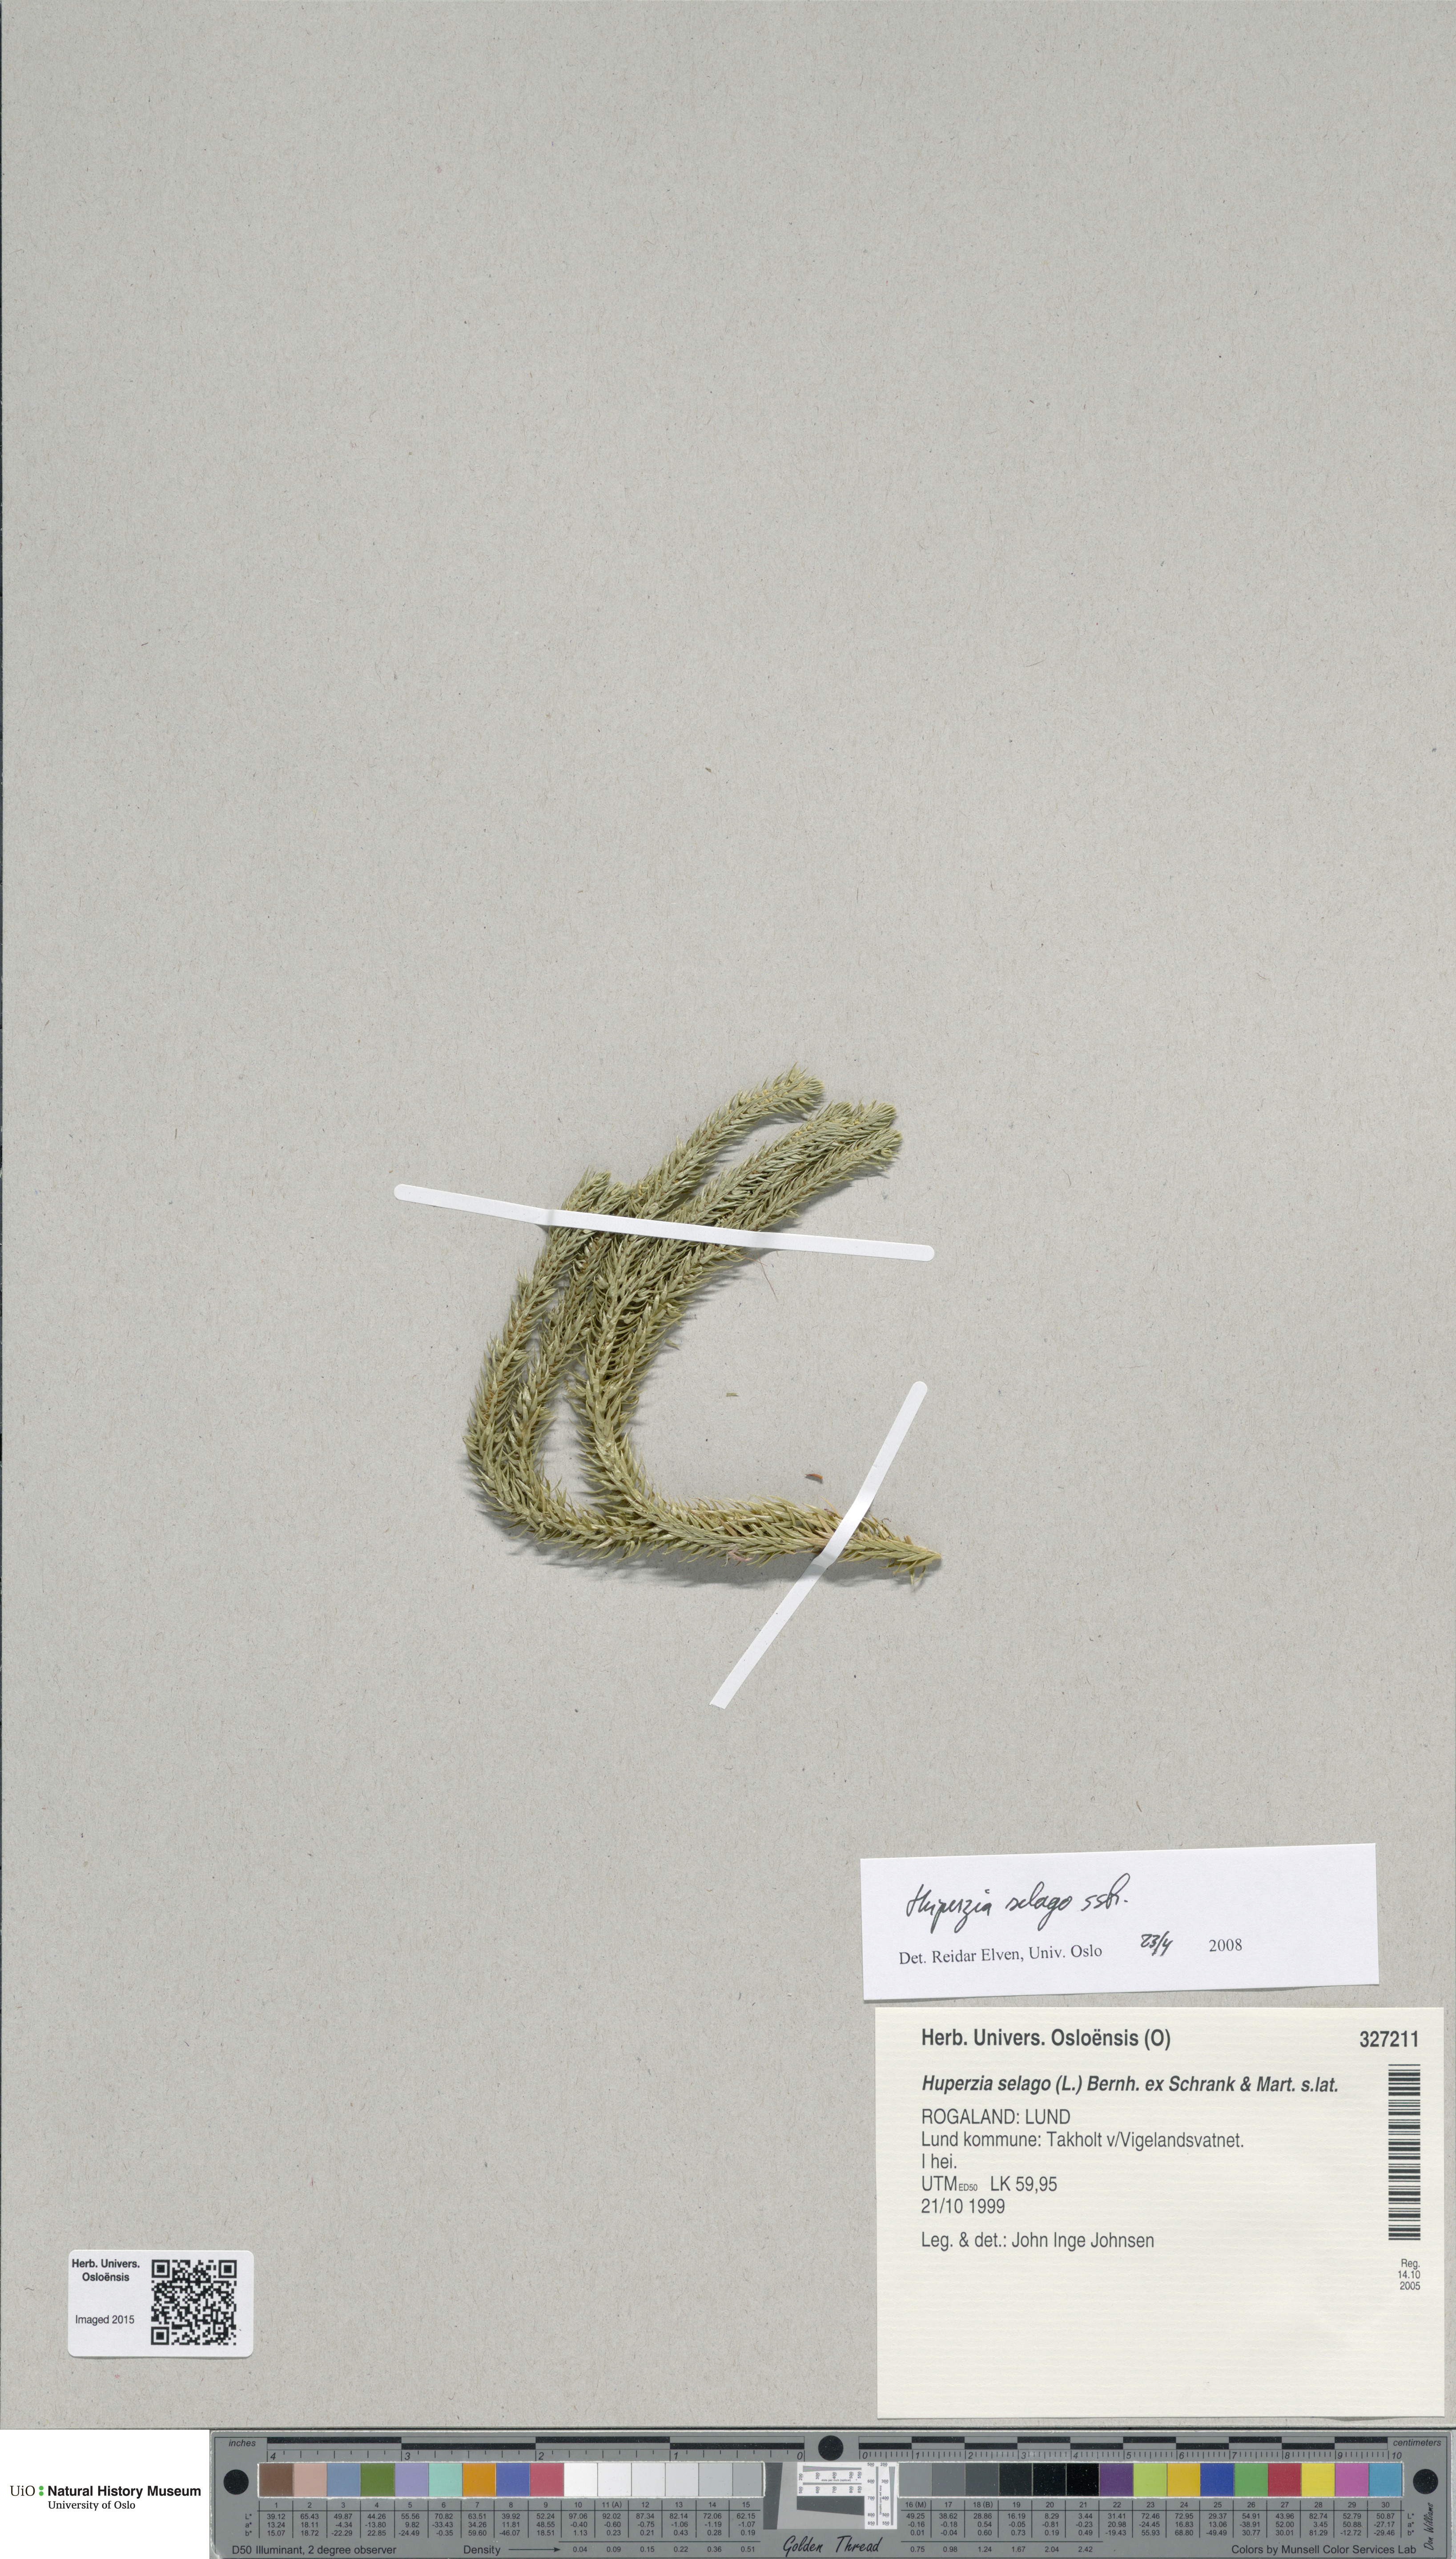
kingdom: Plantae
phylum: Tracheophyta
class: Lycopodiopsida
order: Lycopodiales
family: Lycopodiaceae
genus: Huperzia
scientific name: Huperzia selago
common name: Northern firmoss
